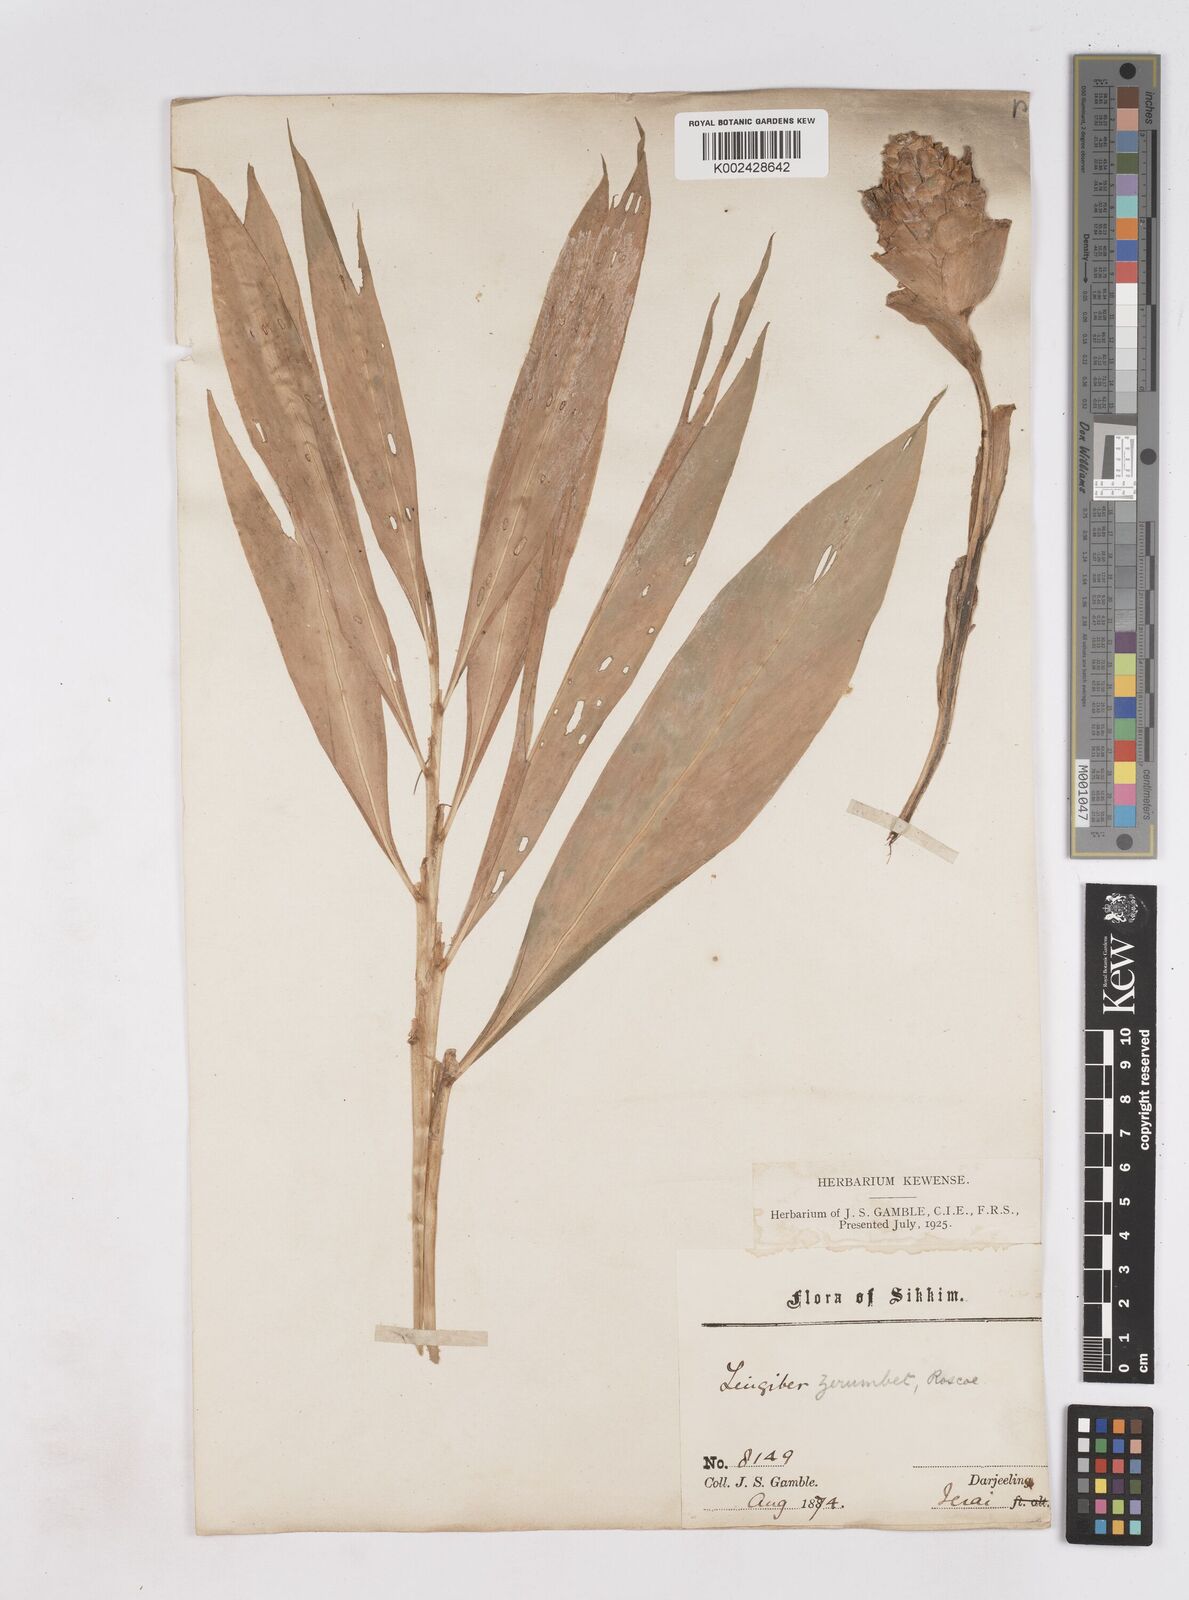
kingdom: Plantae
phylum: Tracheophyta
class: Liliopsida
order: Zingiberales
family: Zingiberaceae
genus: Zingiber
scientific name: Zingiber zerumbet
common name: Bitter ginger
